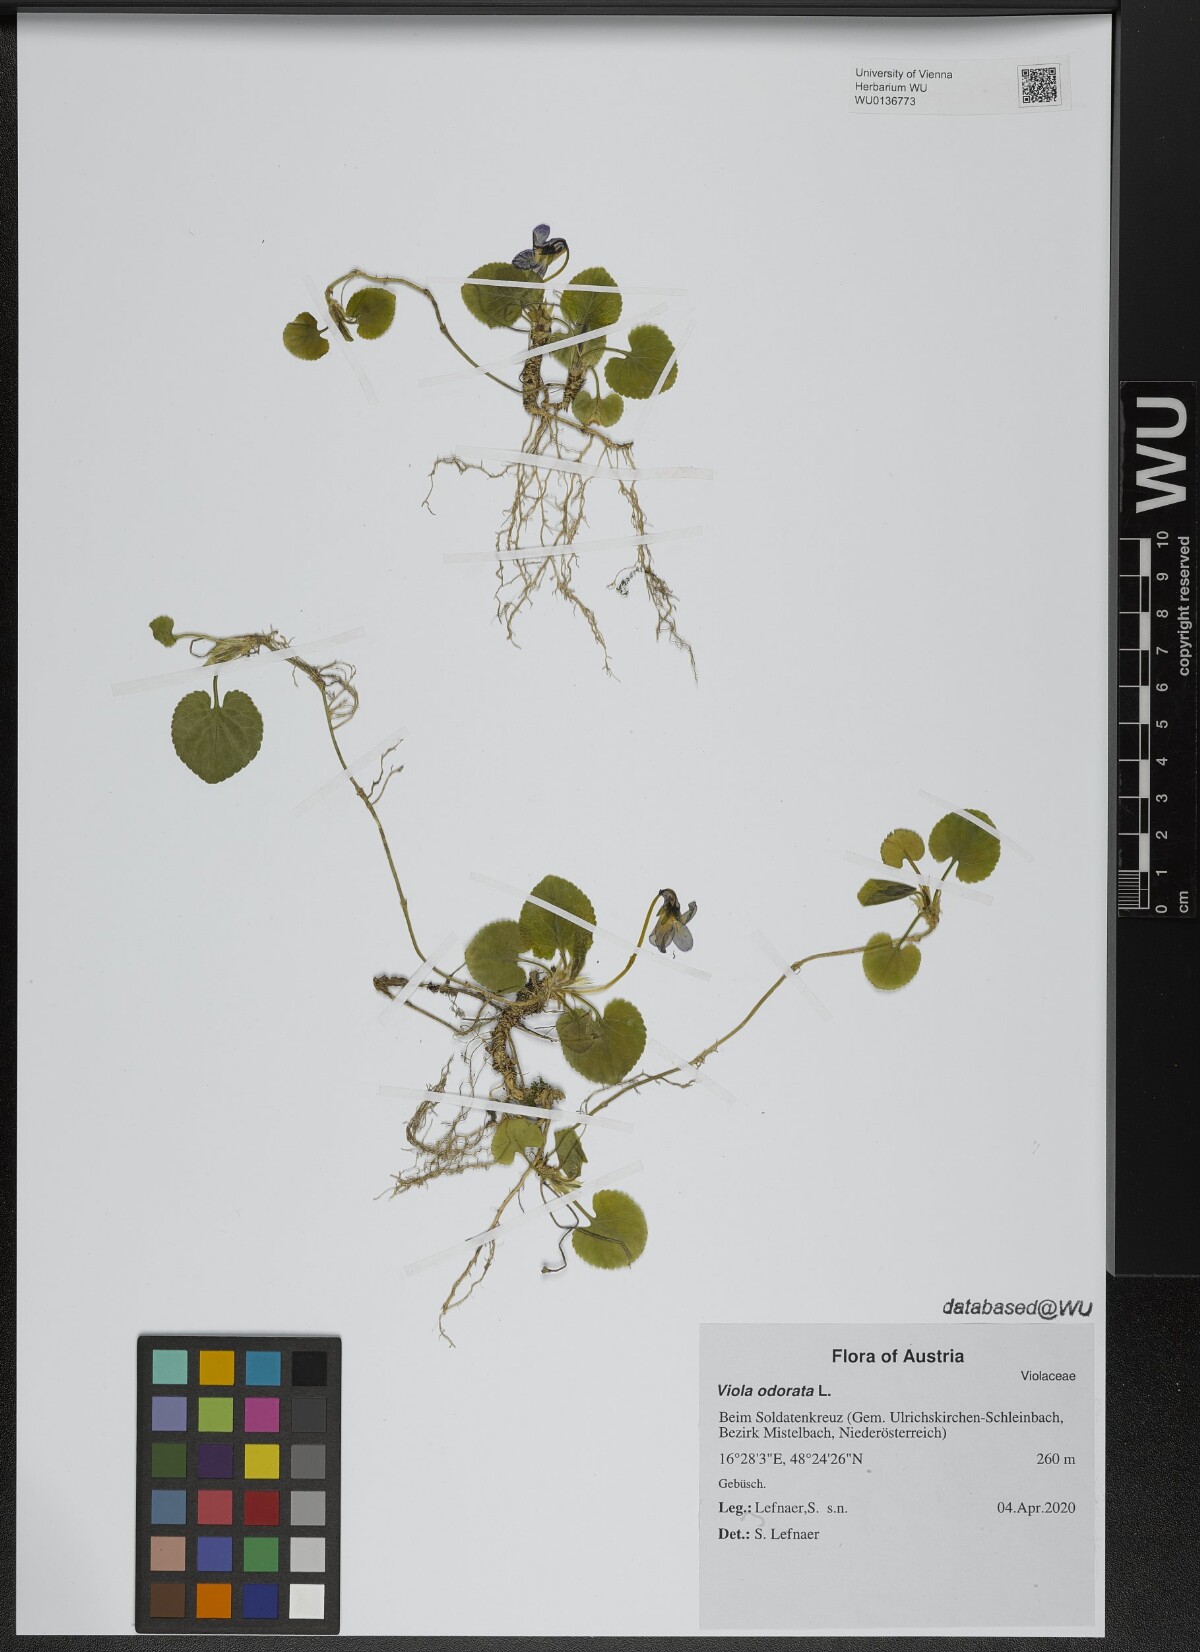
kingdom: Plantae
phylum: Tracheophyta
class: Magnoliopsida
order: Malpighiales
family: Violaceae
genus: Viola
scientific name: Viola odorata
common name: Sweet violet
